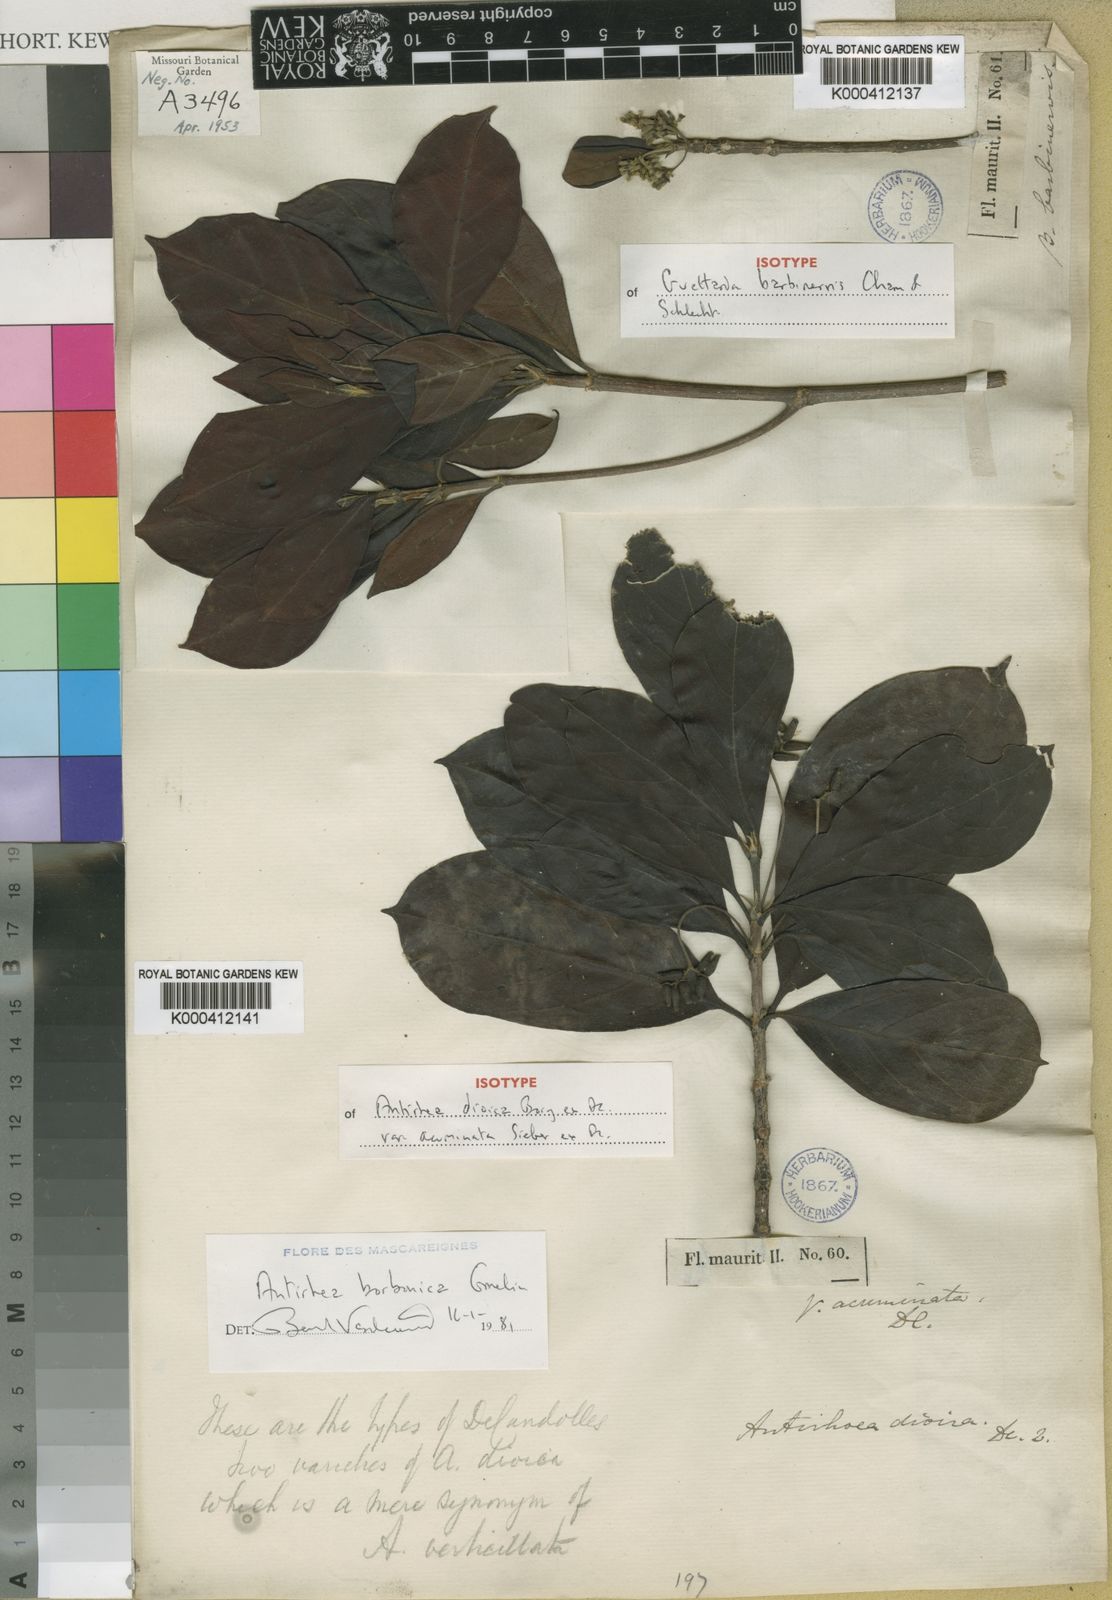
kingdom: Plantae
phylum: Tracheophyta
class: Magnoliopsida
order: Gentianales
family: Rubiaceae
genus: Antirhea
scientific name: Antirhea borbonica
